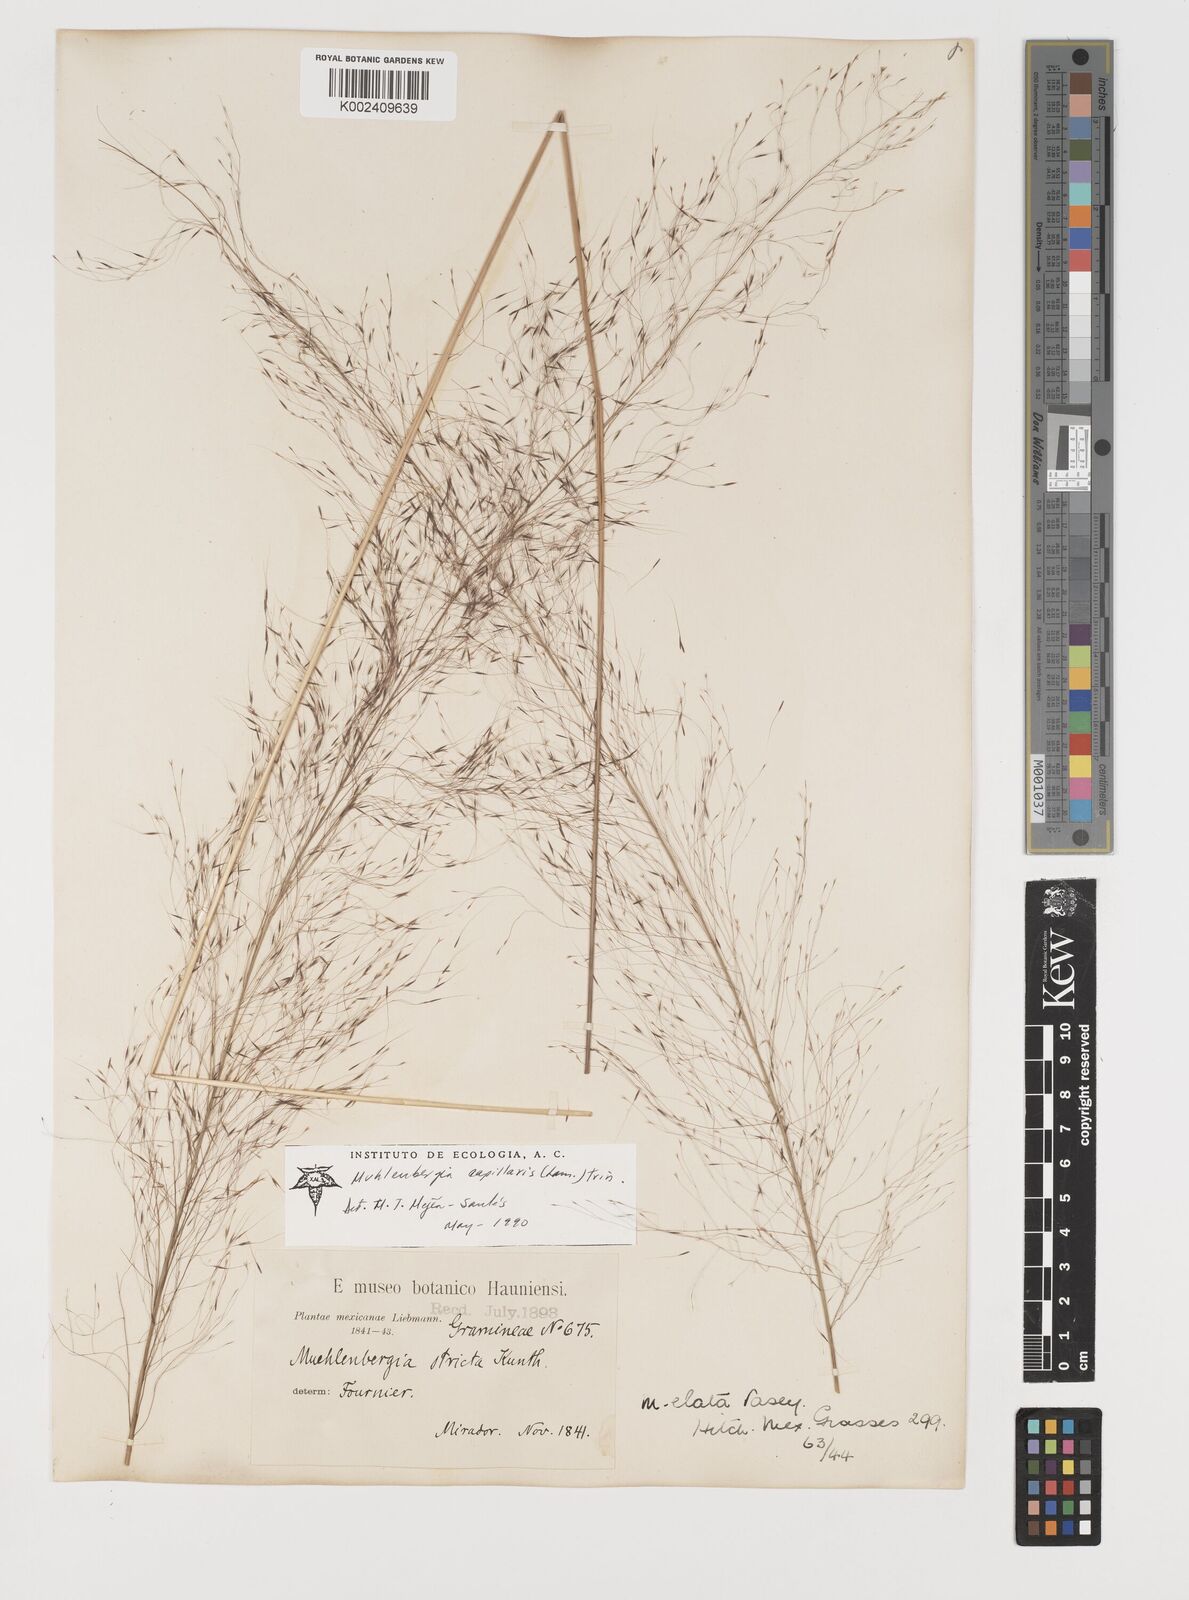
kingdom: Plantae
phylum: Tracheophyta
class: Liliopsida
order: Poales
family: Poaceae
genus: Muhlenbergia
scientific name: Muhlenbergia stricta
